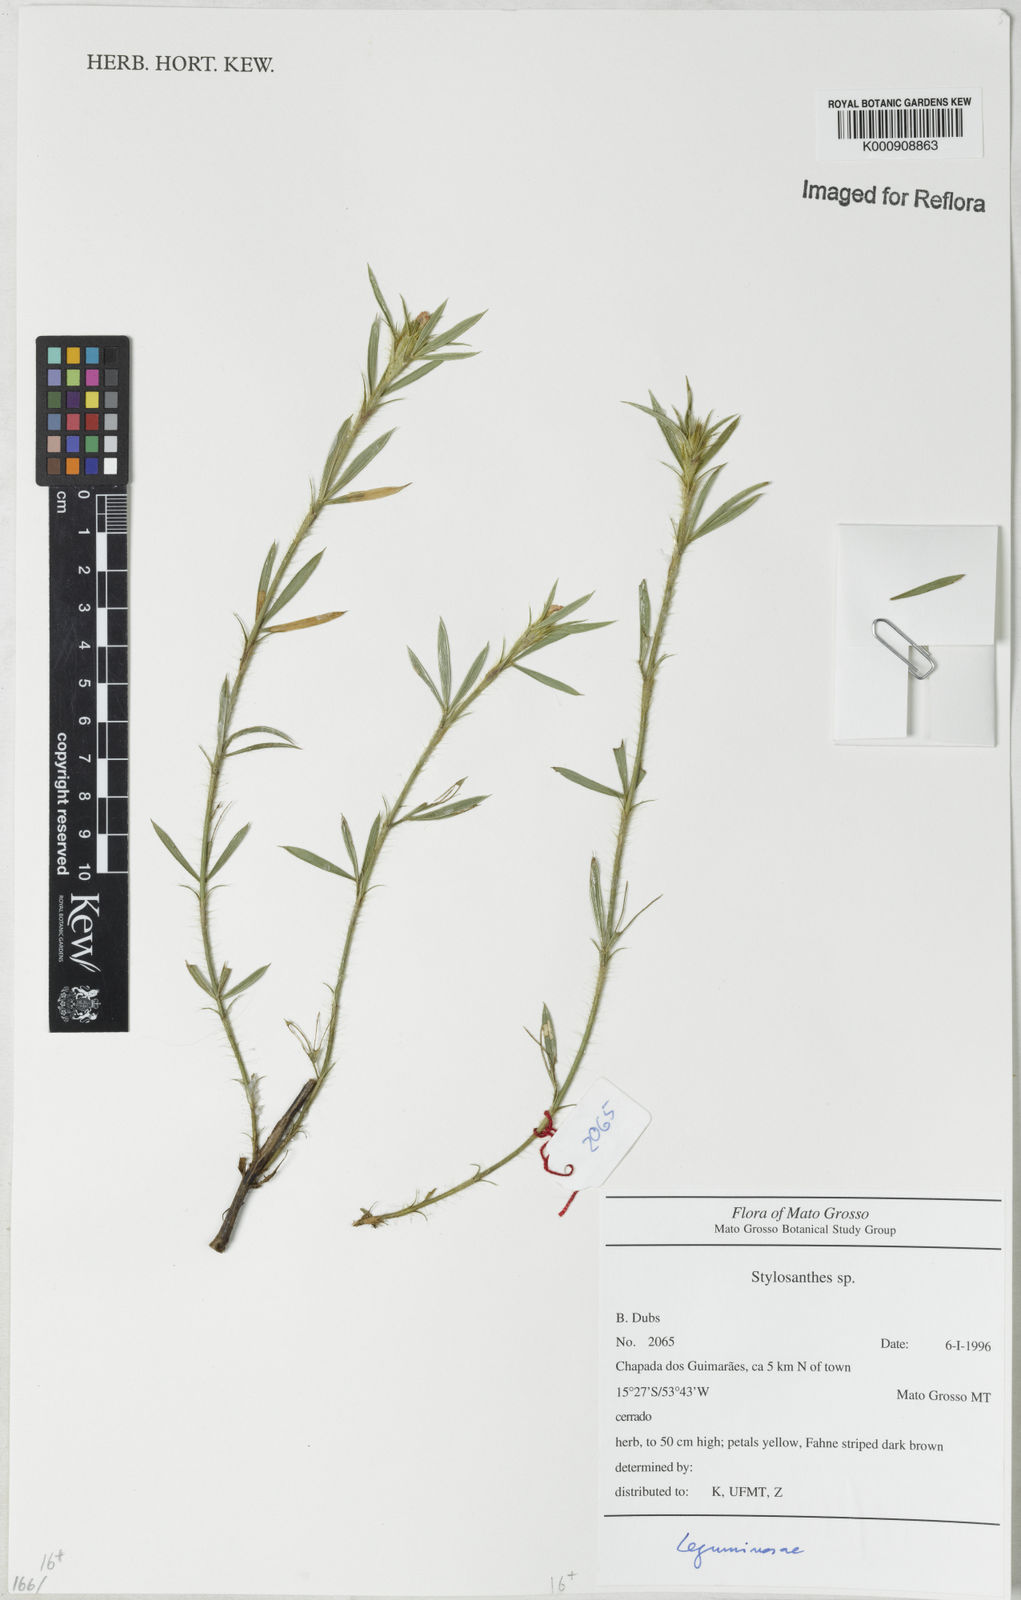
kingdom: Plantae
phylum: Tracheophyta
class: Magnoliopsida
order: Fabales
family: Fabaceae
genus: Stylosanthes
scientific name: Stylosanthes
